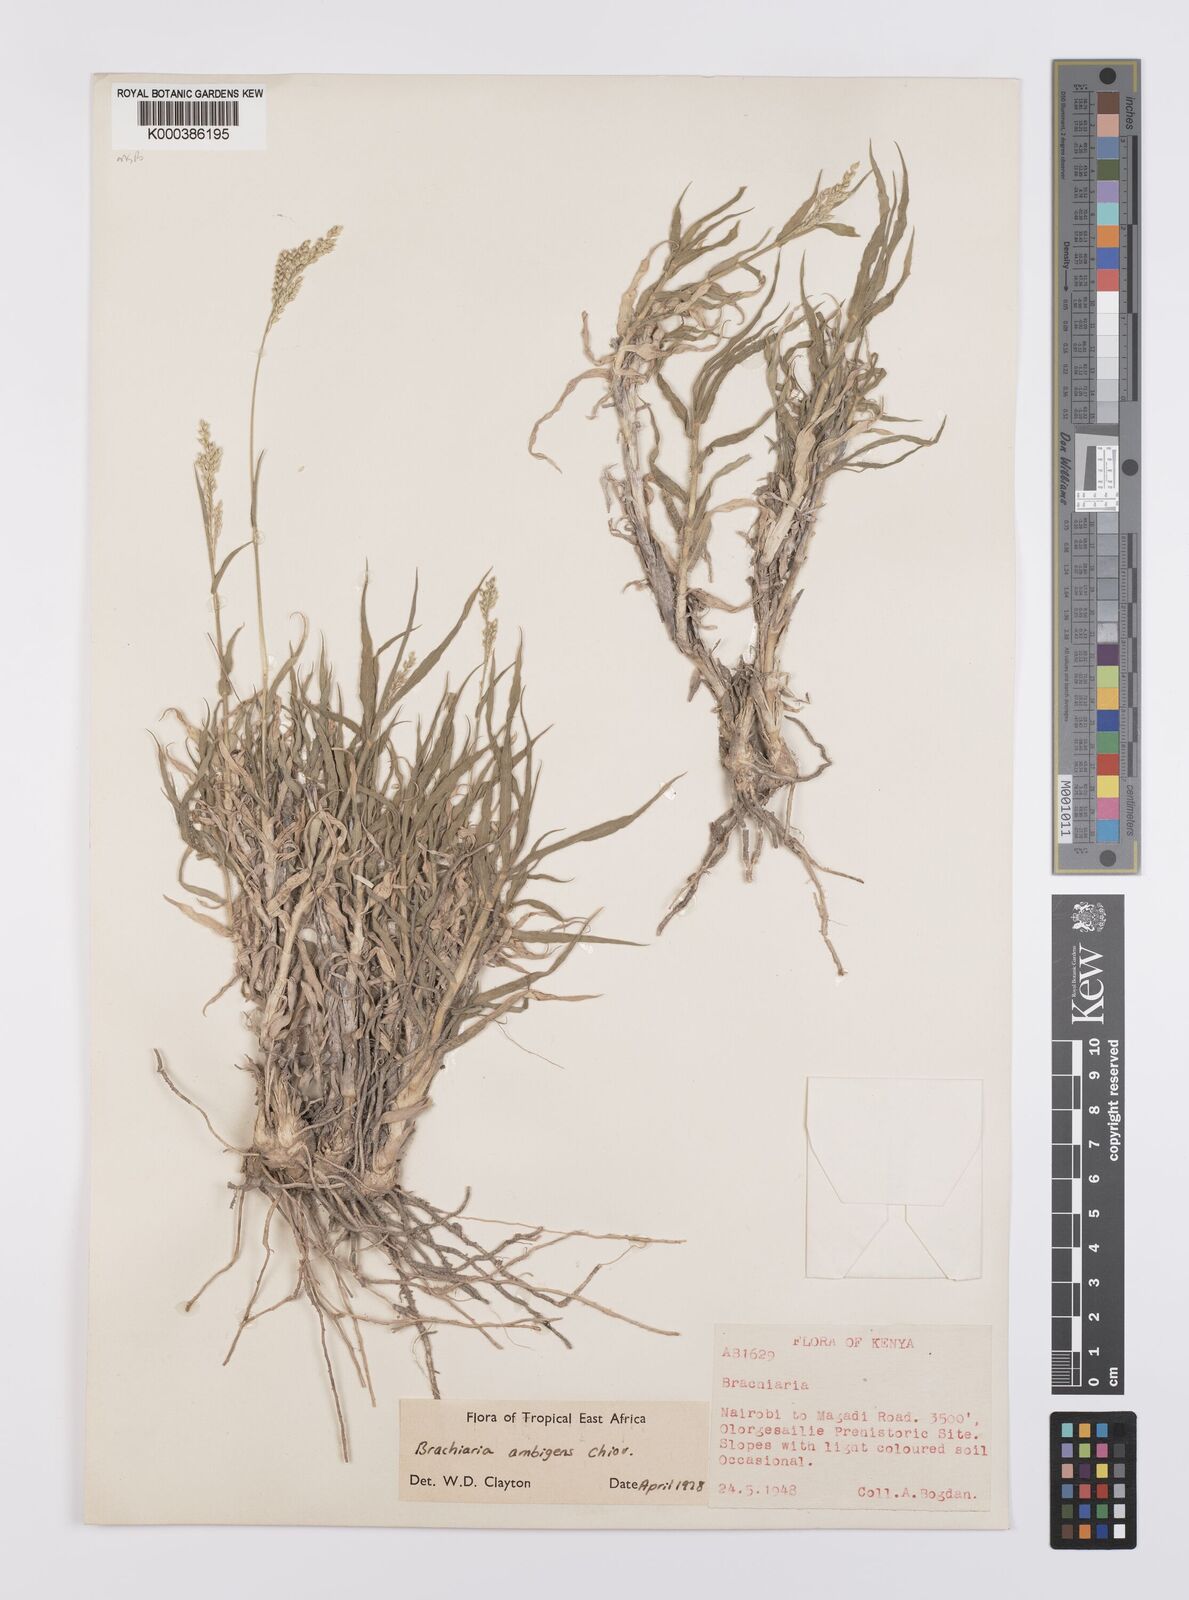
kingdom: Plantae
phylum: Tracheophyta
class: Liliopsida
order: Poales
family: Poaceae
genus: Urochloa
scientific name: Urochloa Brachiaria ambigens
